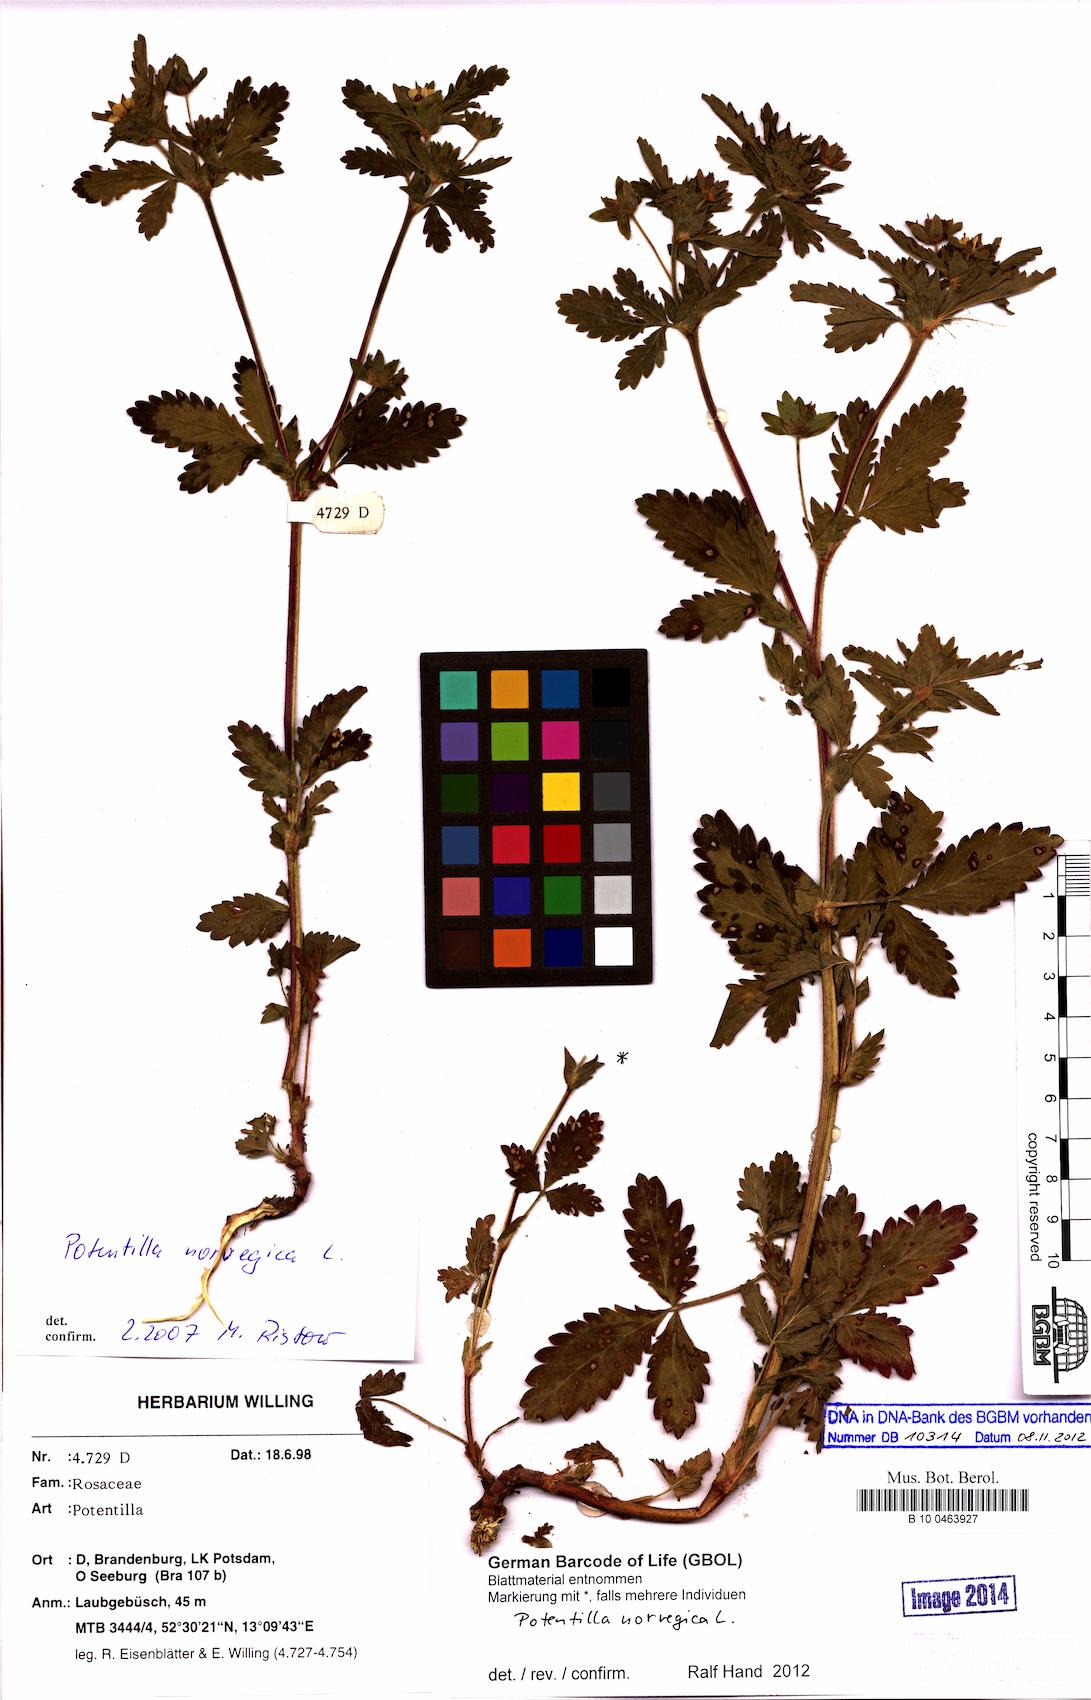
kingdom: Plantae
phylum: Tracheophyta
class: Magnoliopsida
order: Rosales
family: Rosaceae
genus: Potentilla
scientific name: Potentilla norvegica
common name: Ternate-leaved cinquefoil
